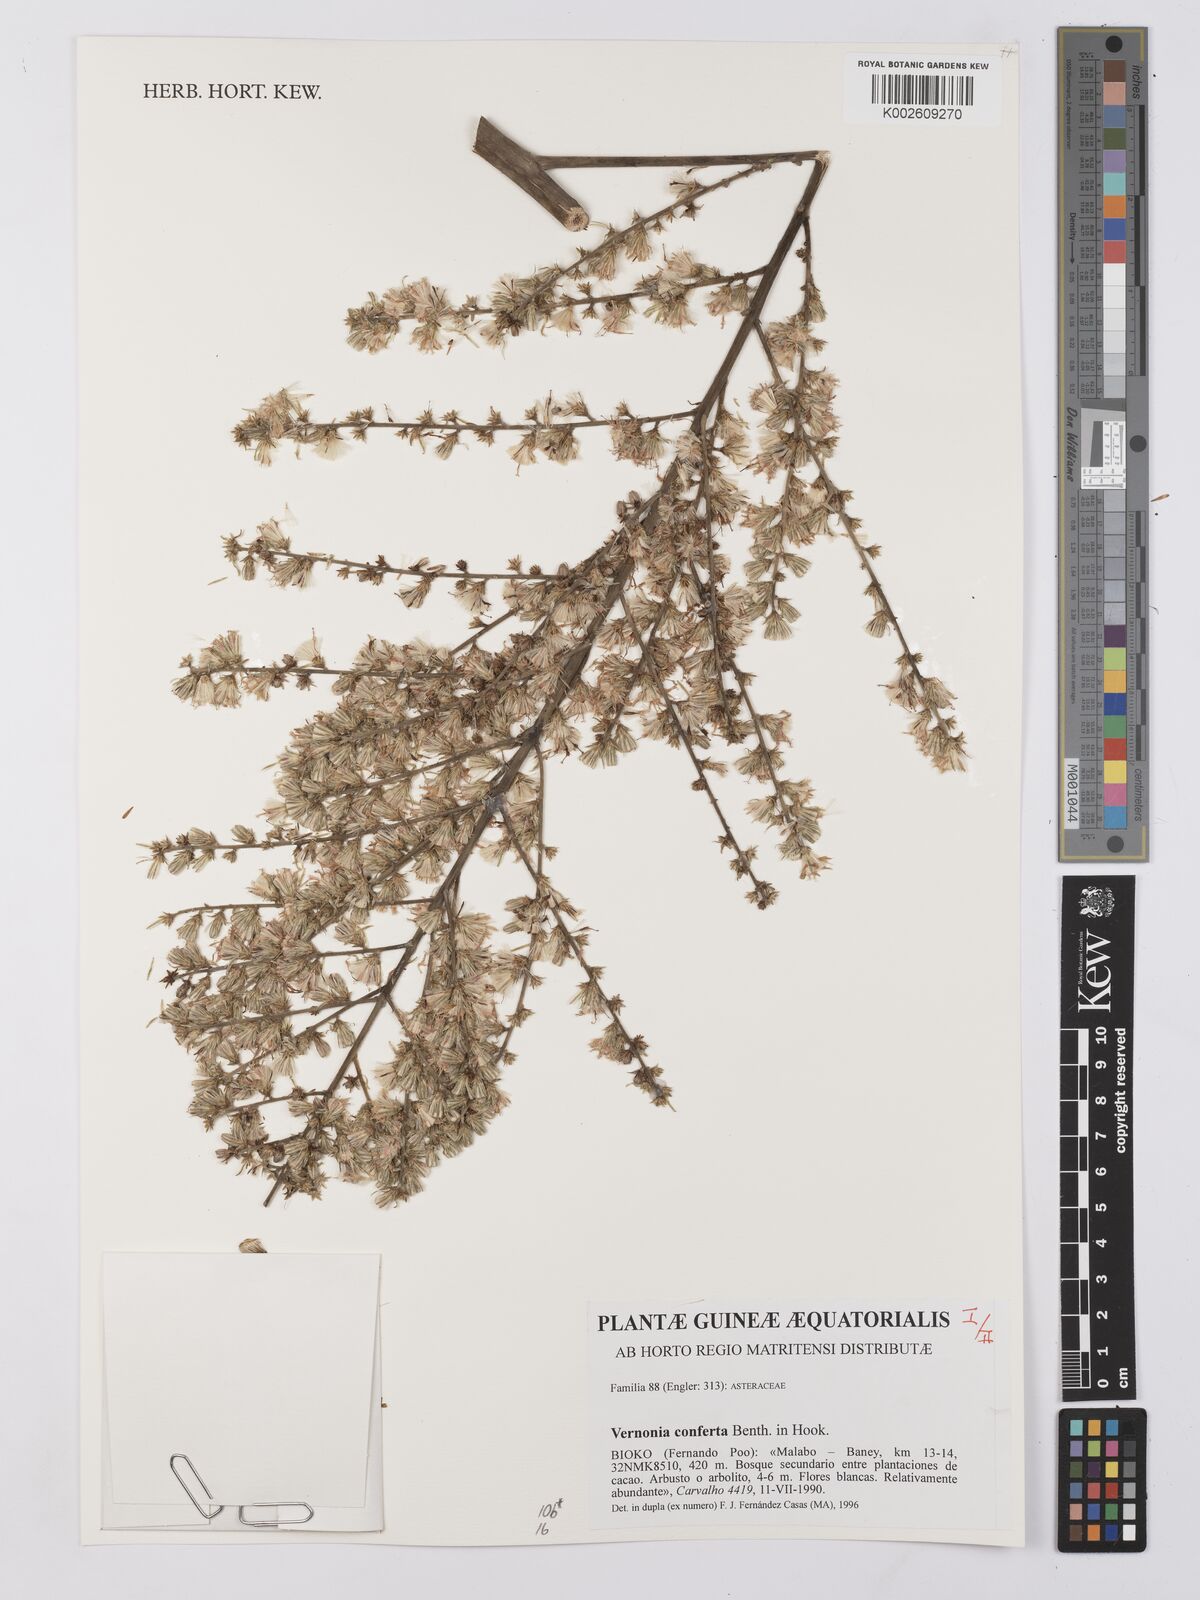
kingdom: Plantae
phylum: Tracheophyta
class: Magnoliopsida
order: Asterales
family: Asteraceae
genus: Monosis
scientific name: Monosis conferta
